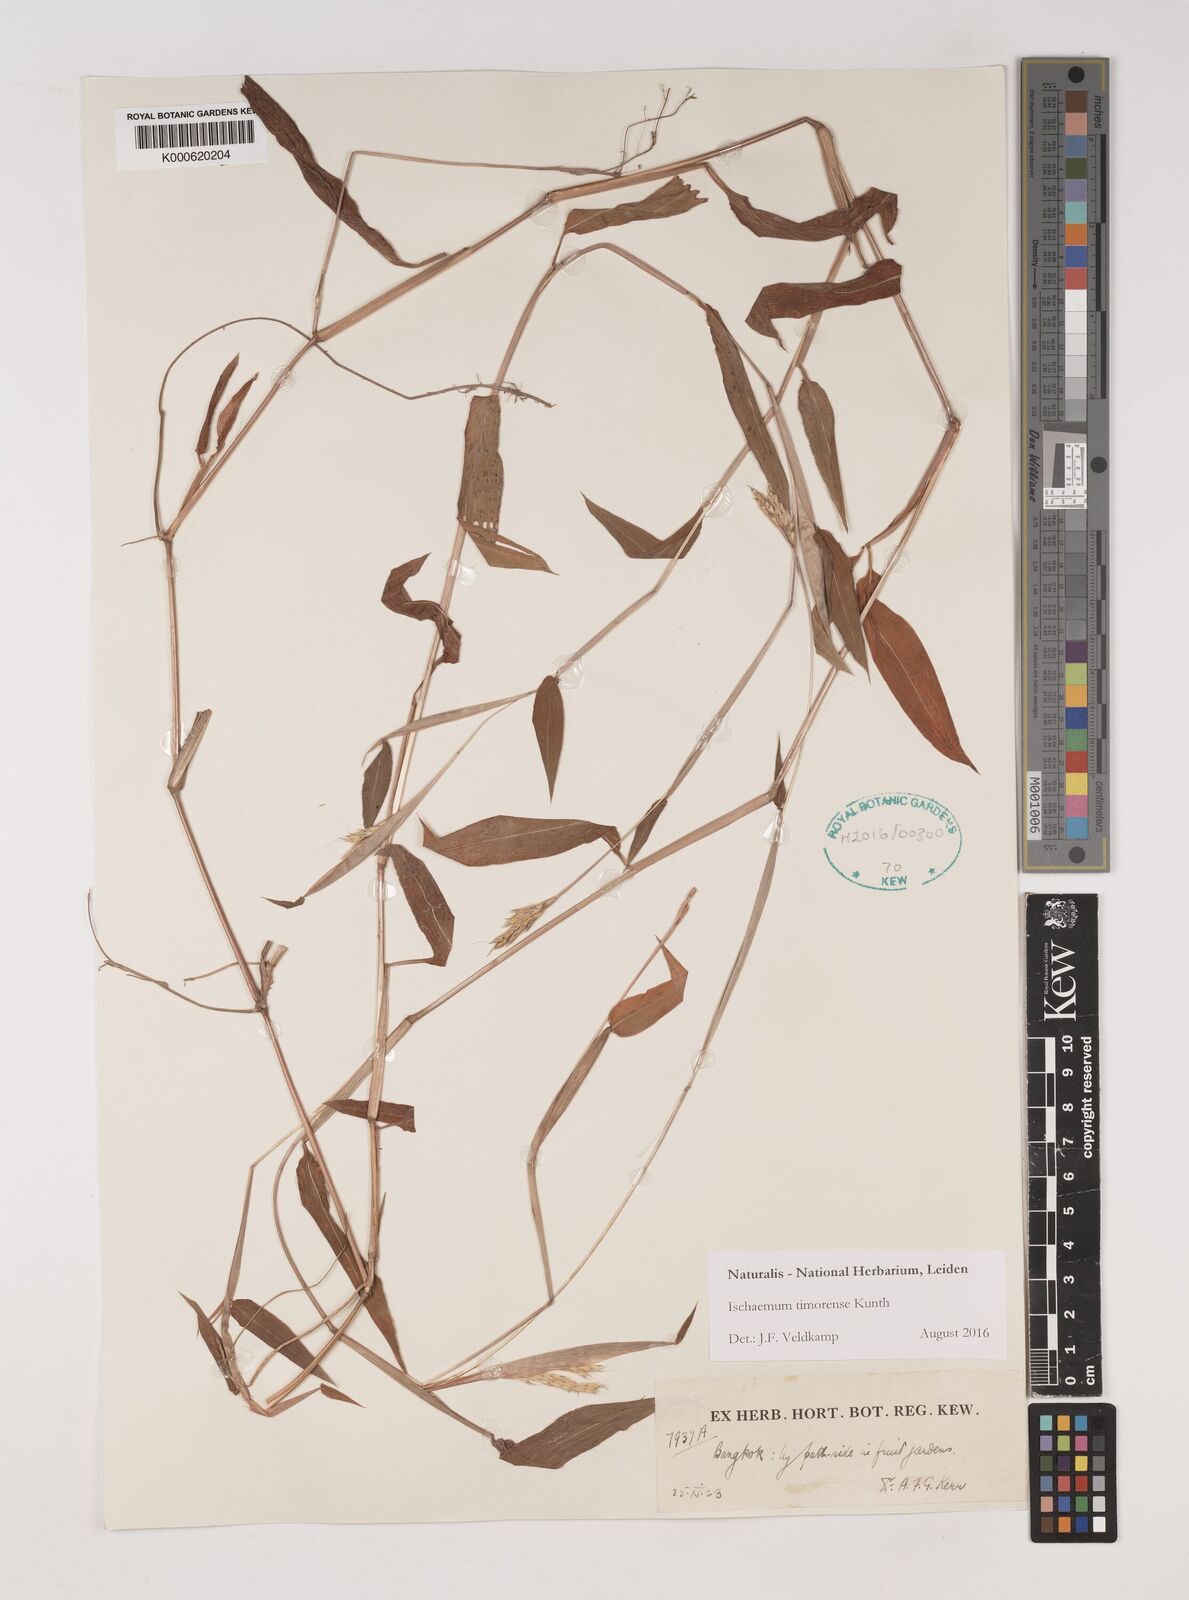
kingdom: Plantae
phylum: Tracheophyta
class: Liliopsida
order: Poales
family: Poaceae
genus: Ischaemum
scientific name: Ischaemum timorense
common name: Stalkleaf murainagrass
